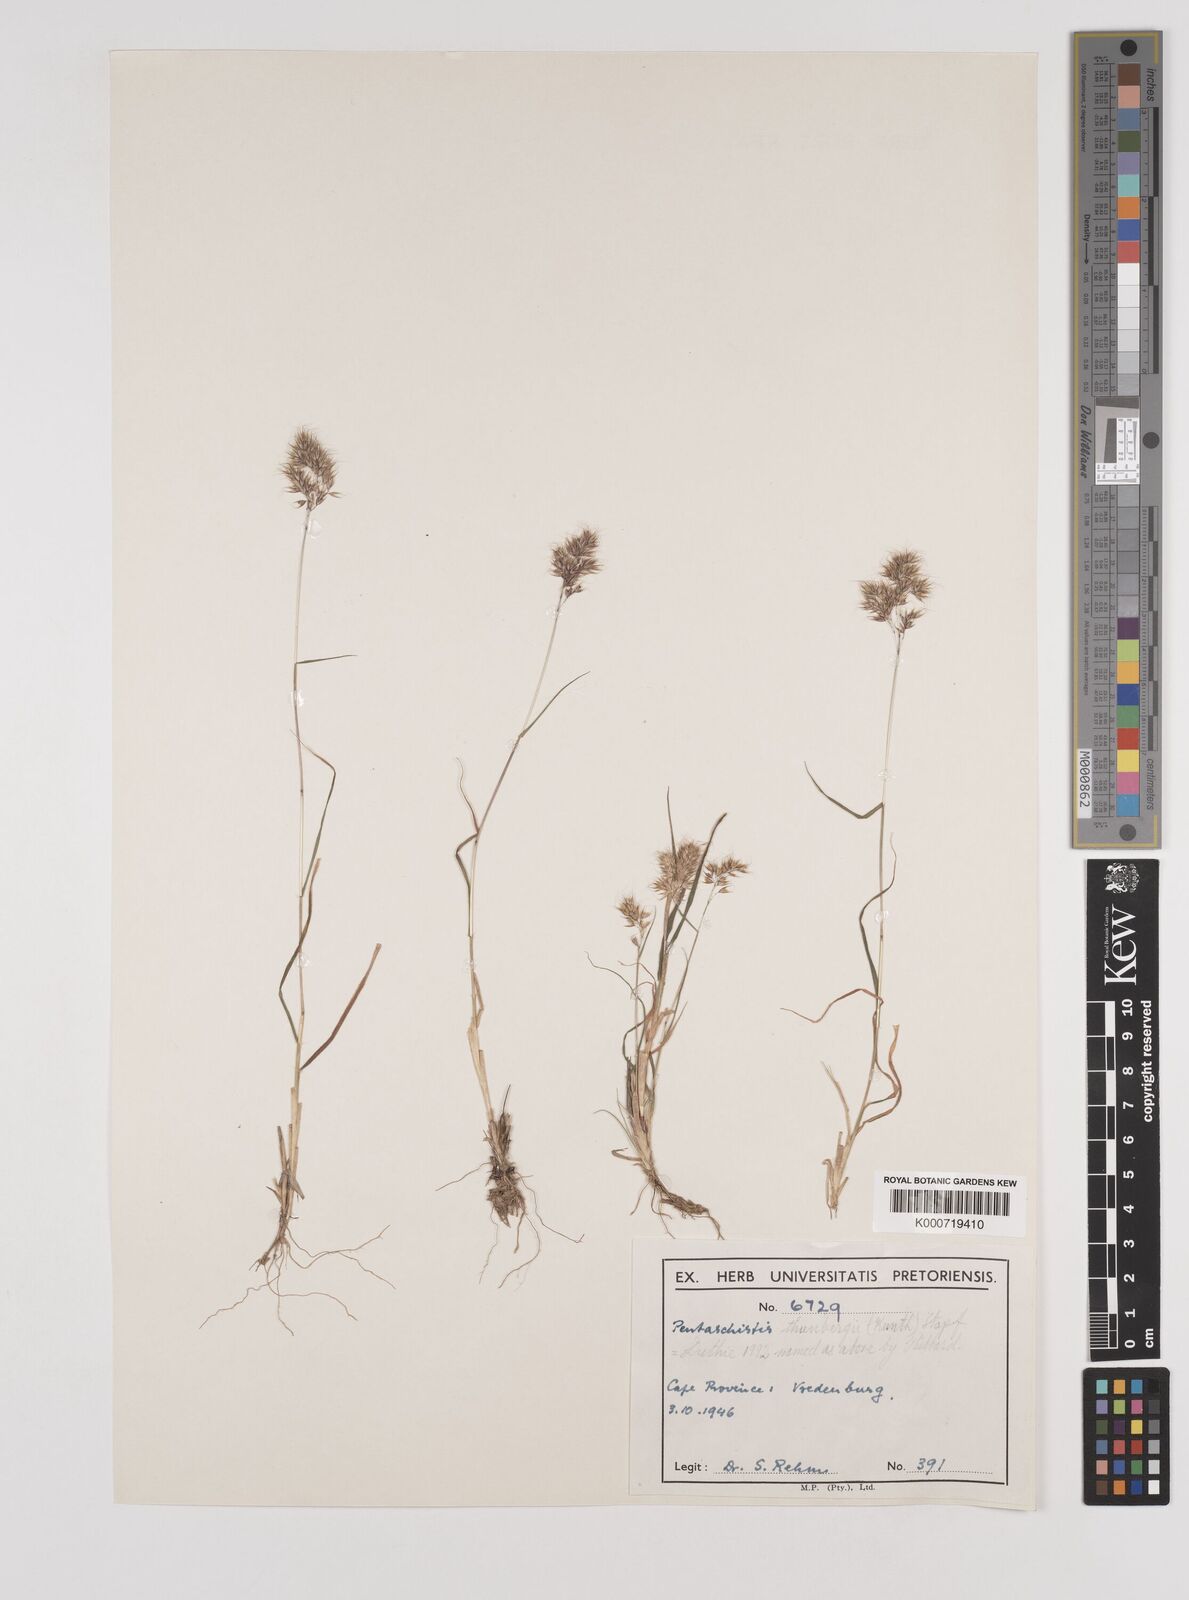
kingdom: Plantae
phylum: Tracheophyta
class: Liliopsida
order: Poales
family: Poaceae
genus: Pentameris
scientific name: Pentameris triseta
